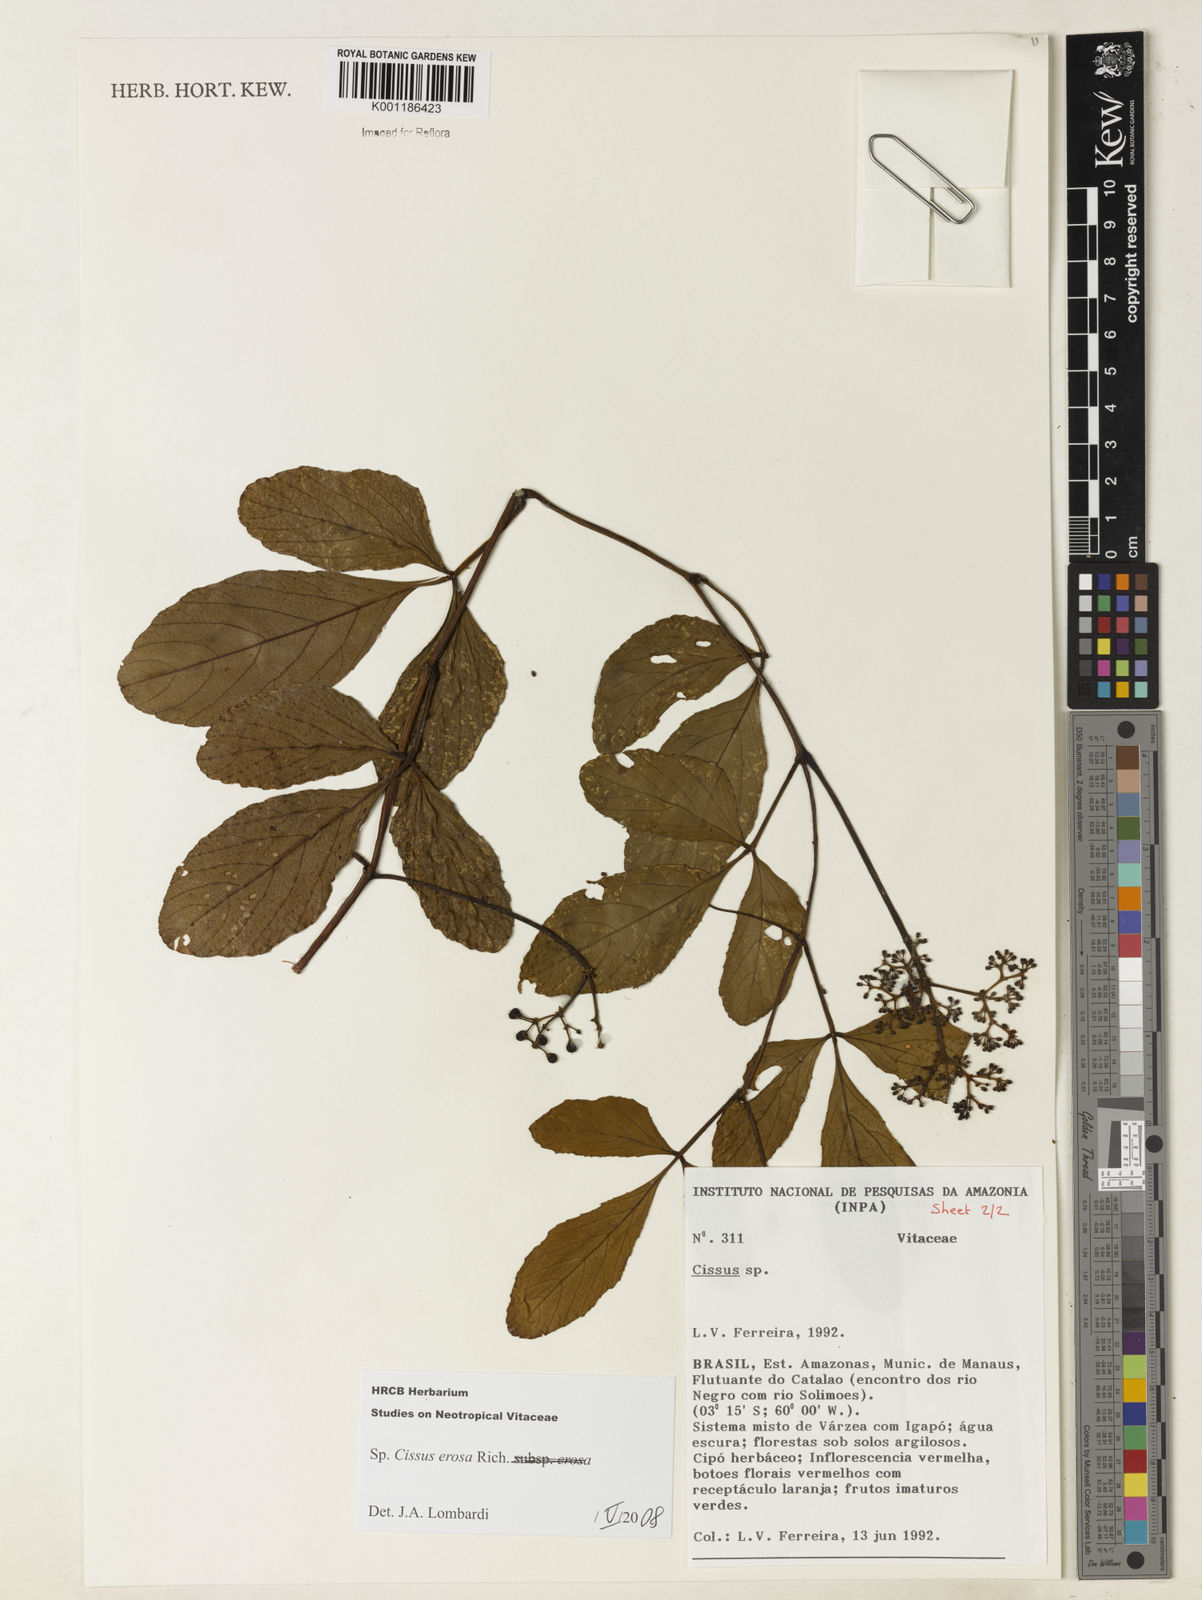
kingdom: Plantae
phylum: Tracheophyta
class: Magnoliopsida
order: Vitales
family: Vitaceae
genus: Cissus
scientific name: Cissus erosa
